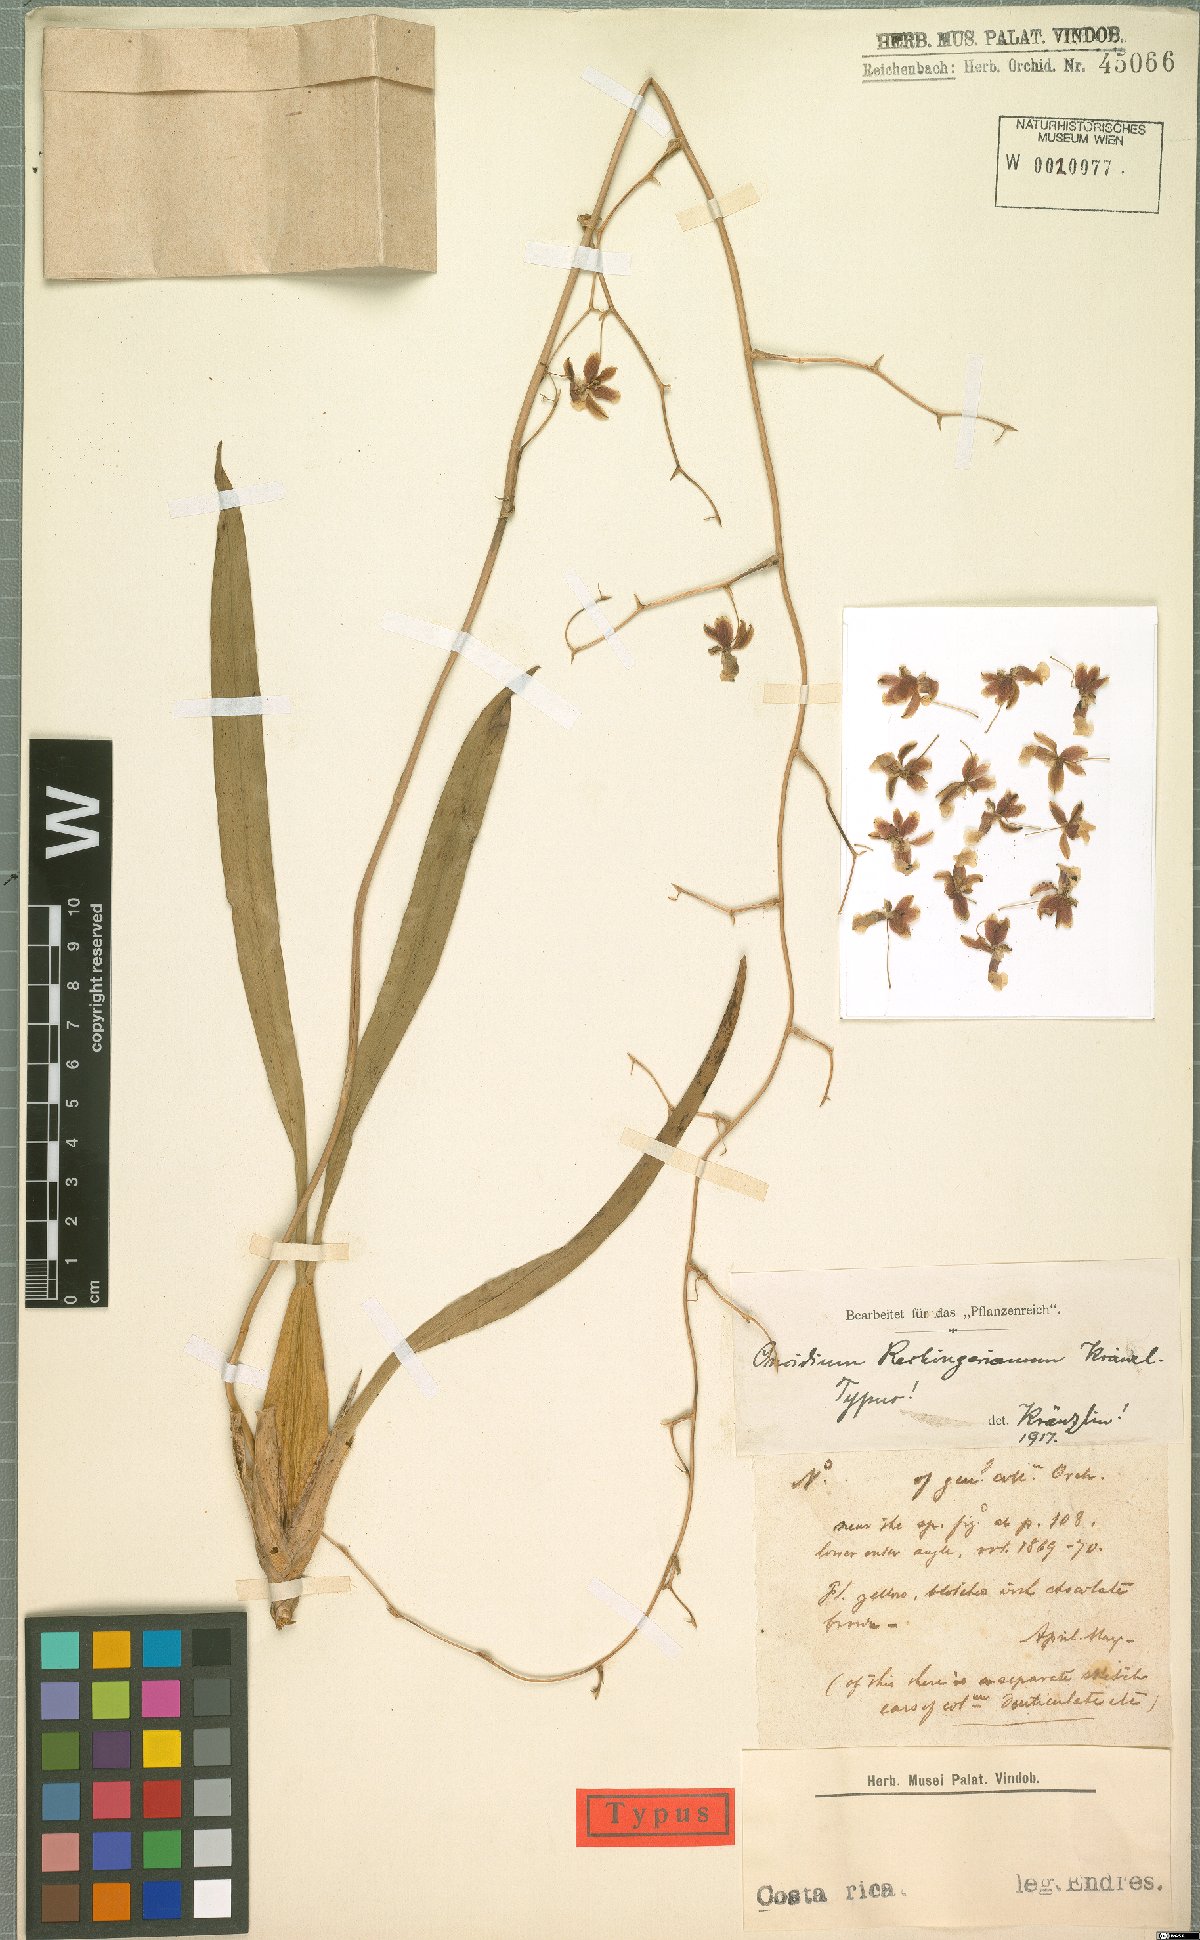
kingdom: Plantae
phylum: Tracheophyta
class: Liliopsida
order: Asparagales
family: Orchidaceae
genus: Oncidium
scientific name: Oncidium dichromaticum
